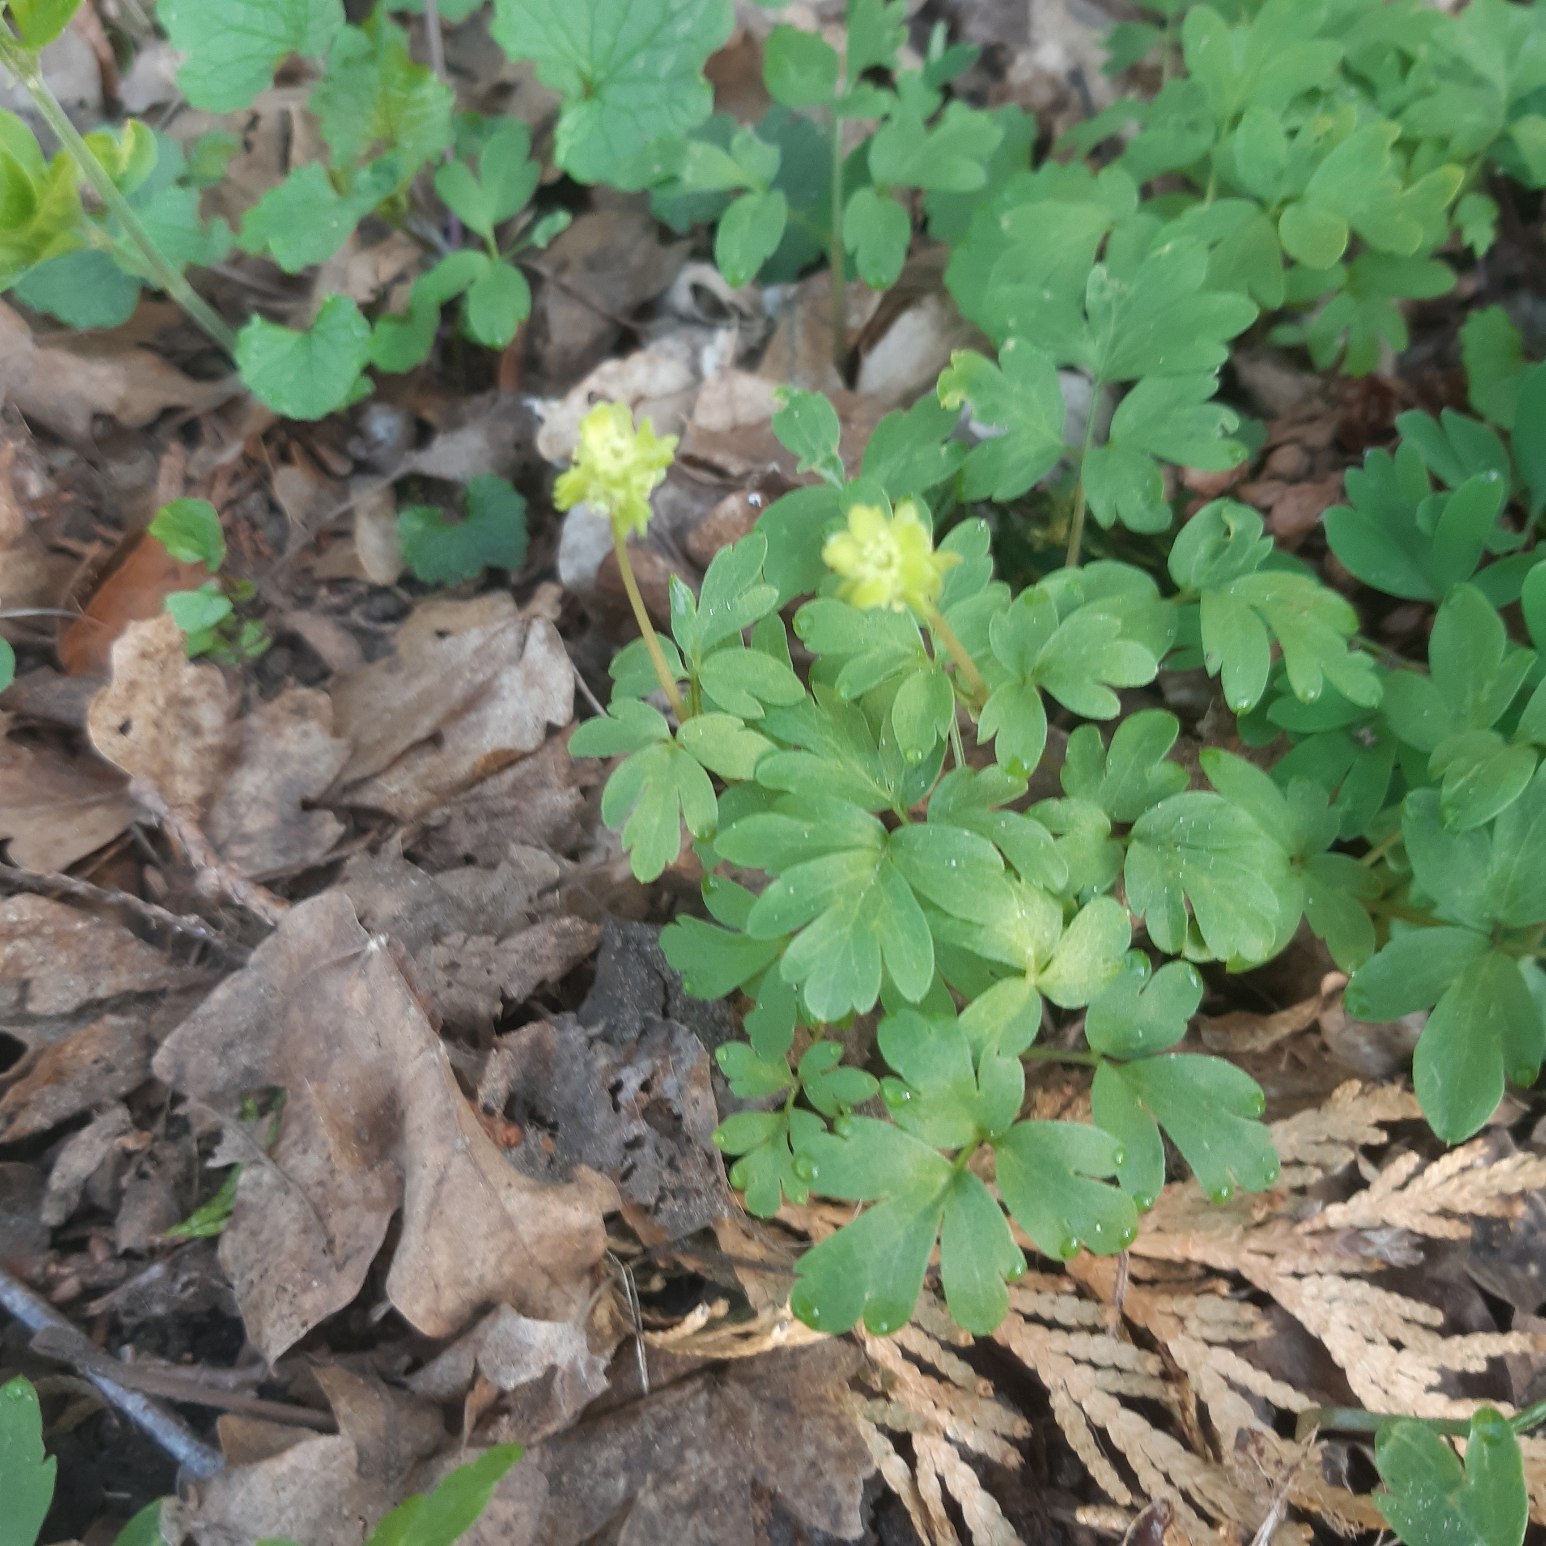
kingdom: Plantae
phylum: Tracheophyta
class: Magnoliopsida
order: Dipsacales
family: Viburnaceae
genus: Adoxa
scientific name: Adoxa moschatellina
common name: Desmerurt
